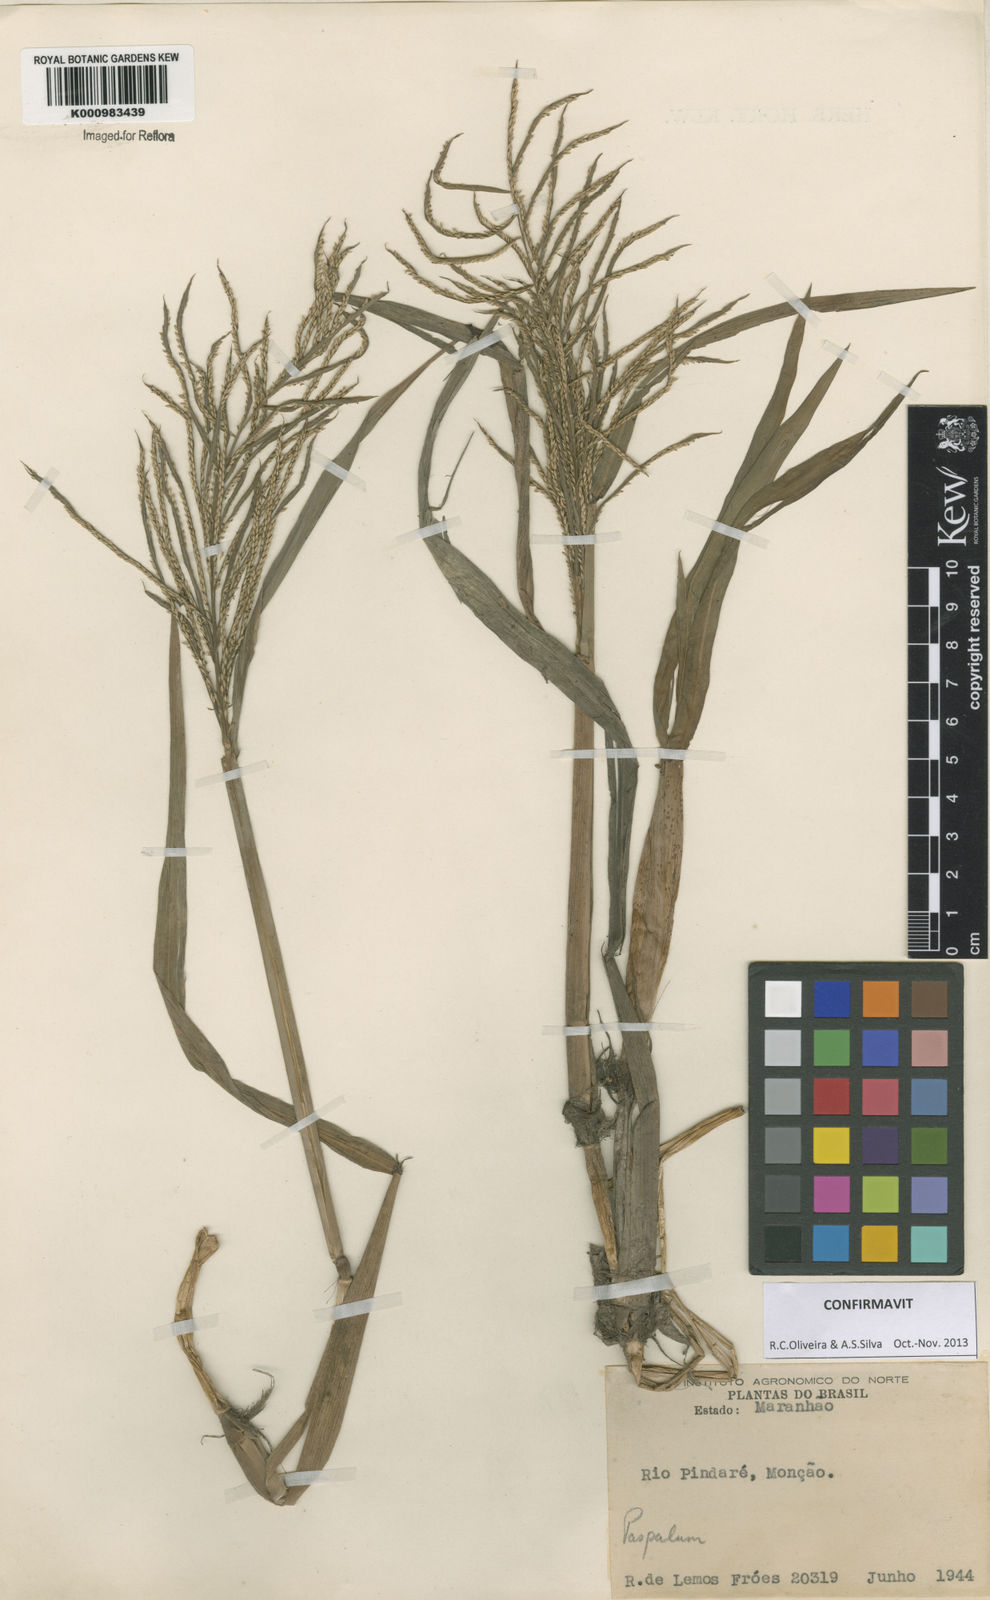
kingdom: Plantae
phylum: Tracheophyta
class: Liliopsida
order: Poales
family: Poaceae
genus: Paspalum
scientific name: Paspalum repens
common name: Water paspalum
